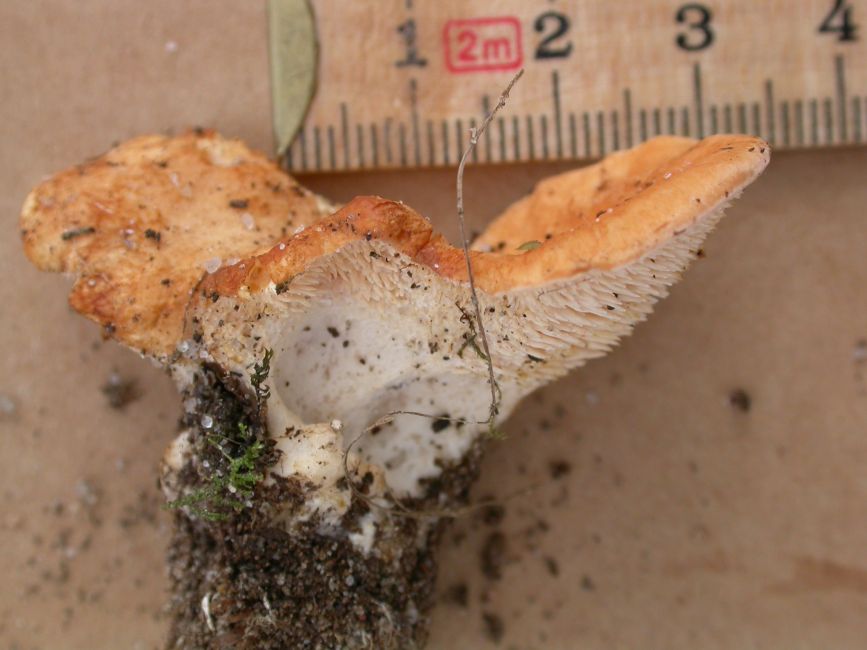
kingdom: Fungi
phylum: Basidiomycota
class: Agaricomycetes
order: Cantharellales
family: Hydnaceae
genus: Hydnum
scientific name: Hydnum rufescens
